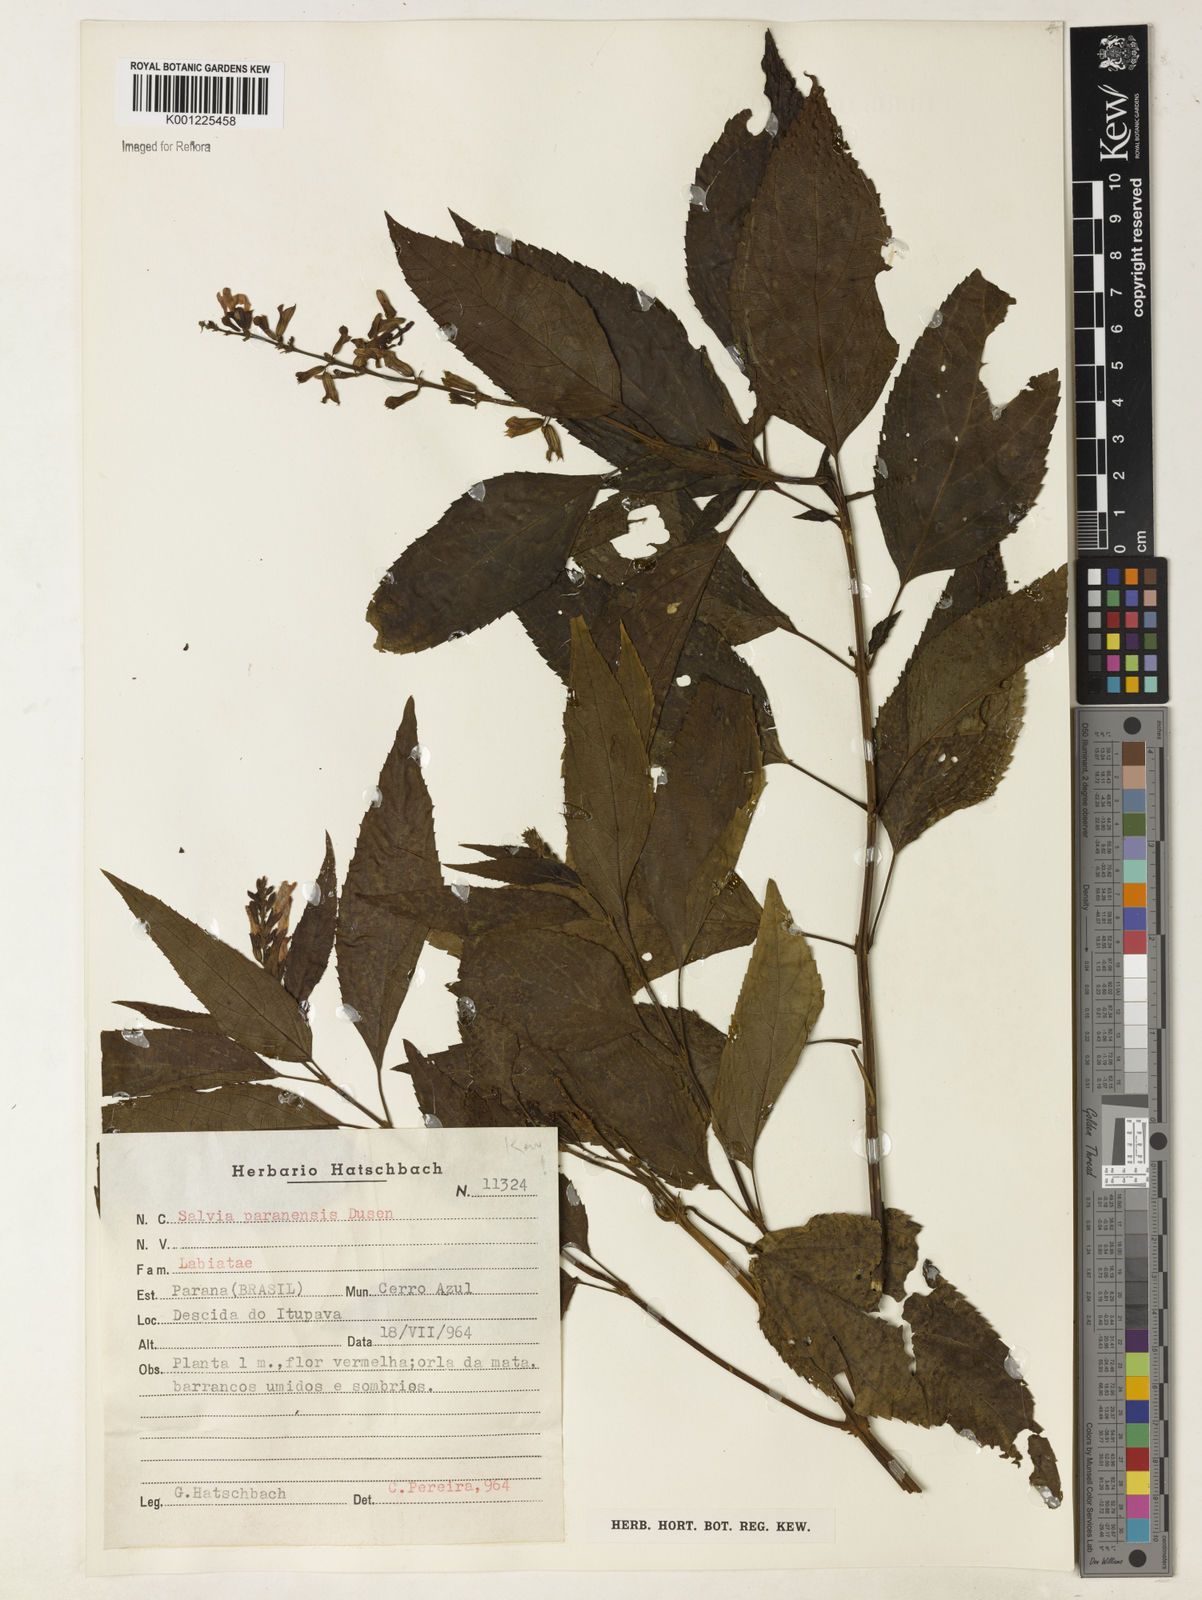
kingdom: Plantae
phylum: Tracheophyta
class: Magnoliopsida
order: Lamiales
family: Lamiaceae
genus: Salvia
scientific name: Salvia melissiflora
